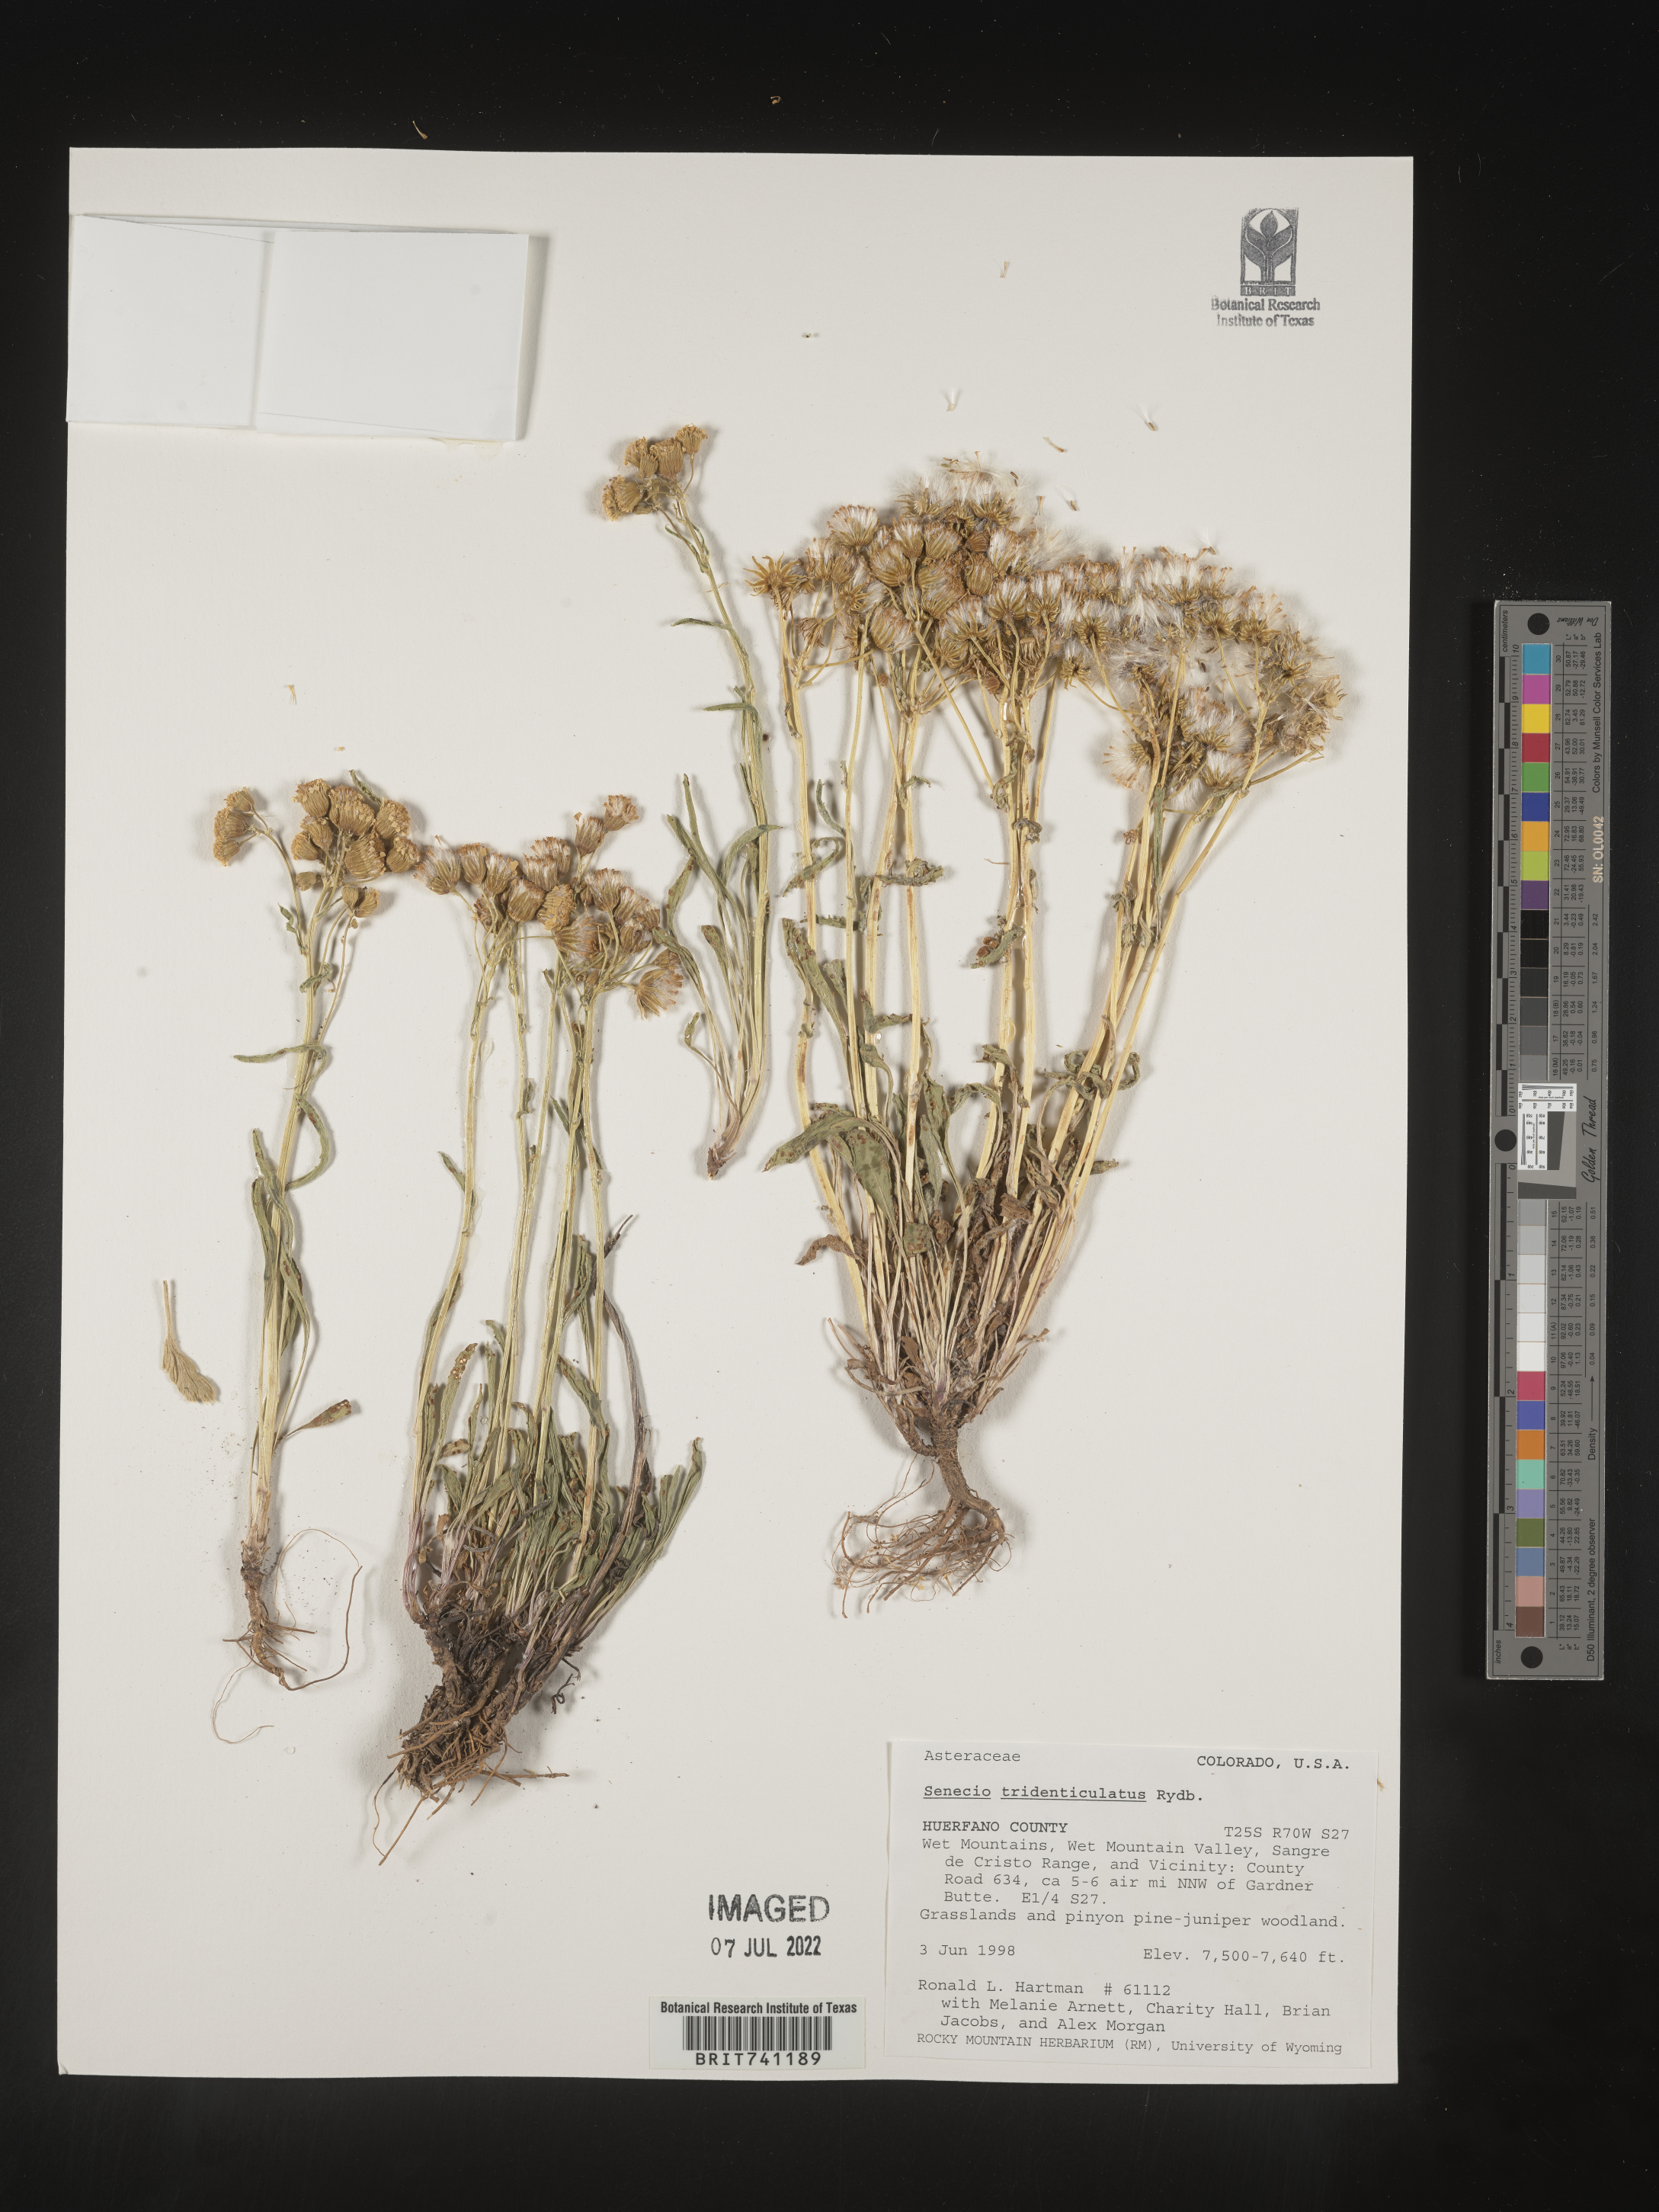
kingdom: Plantae
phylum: Tracheophyta
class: Magnoliopsida
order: Asterales
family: Asteraceae
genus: Packera
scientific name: Packera thurberi
